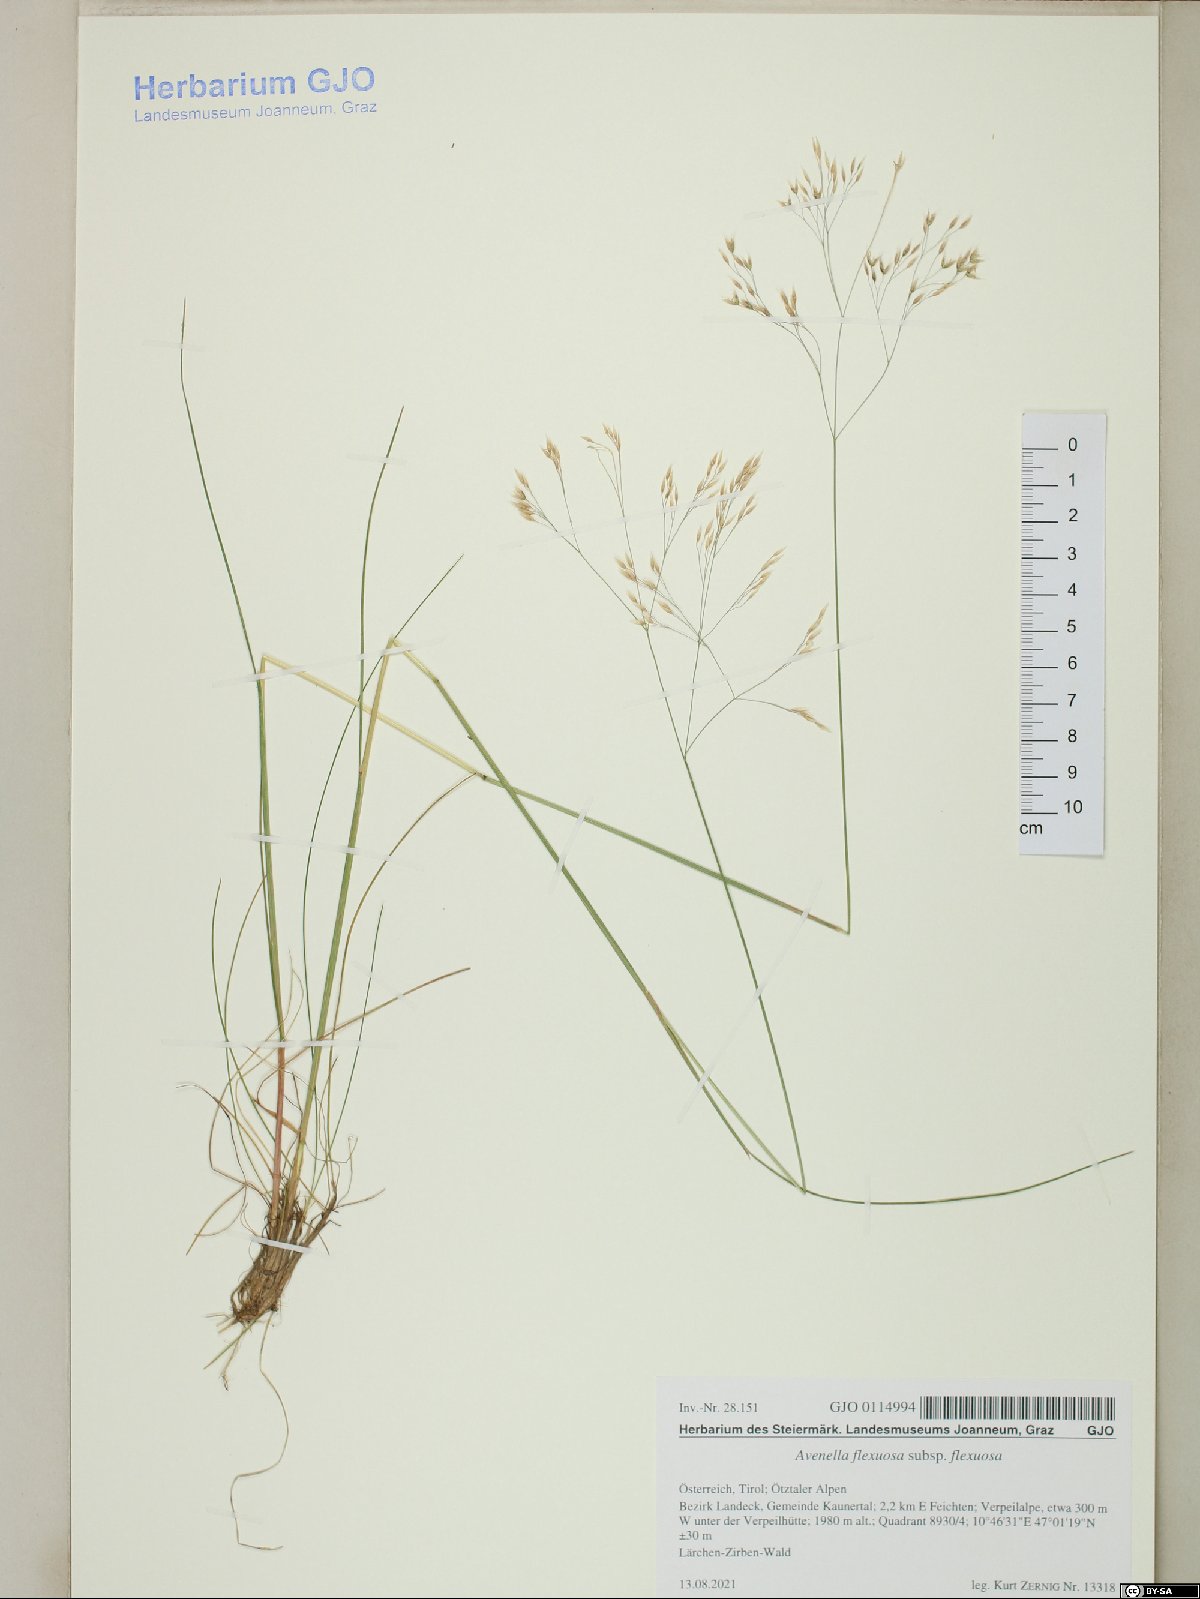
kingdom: Plantae
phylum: Tracheophyta
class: Liliopsida
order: Poales
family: Poaceae
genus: Avenella
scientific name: Avenella flexuosa
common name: Wavy hairgrass
